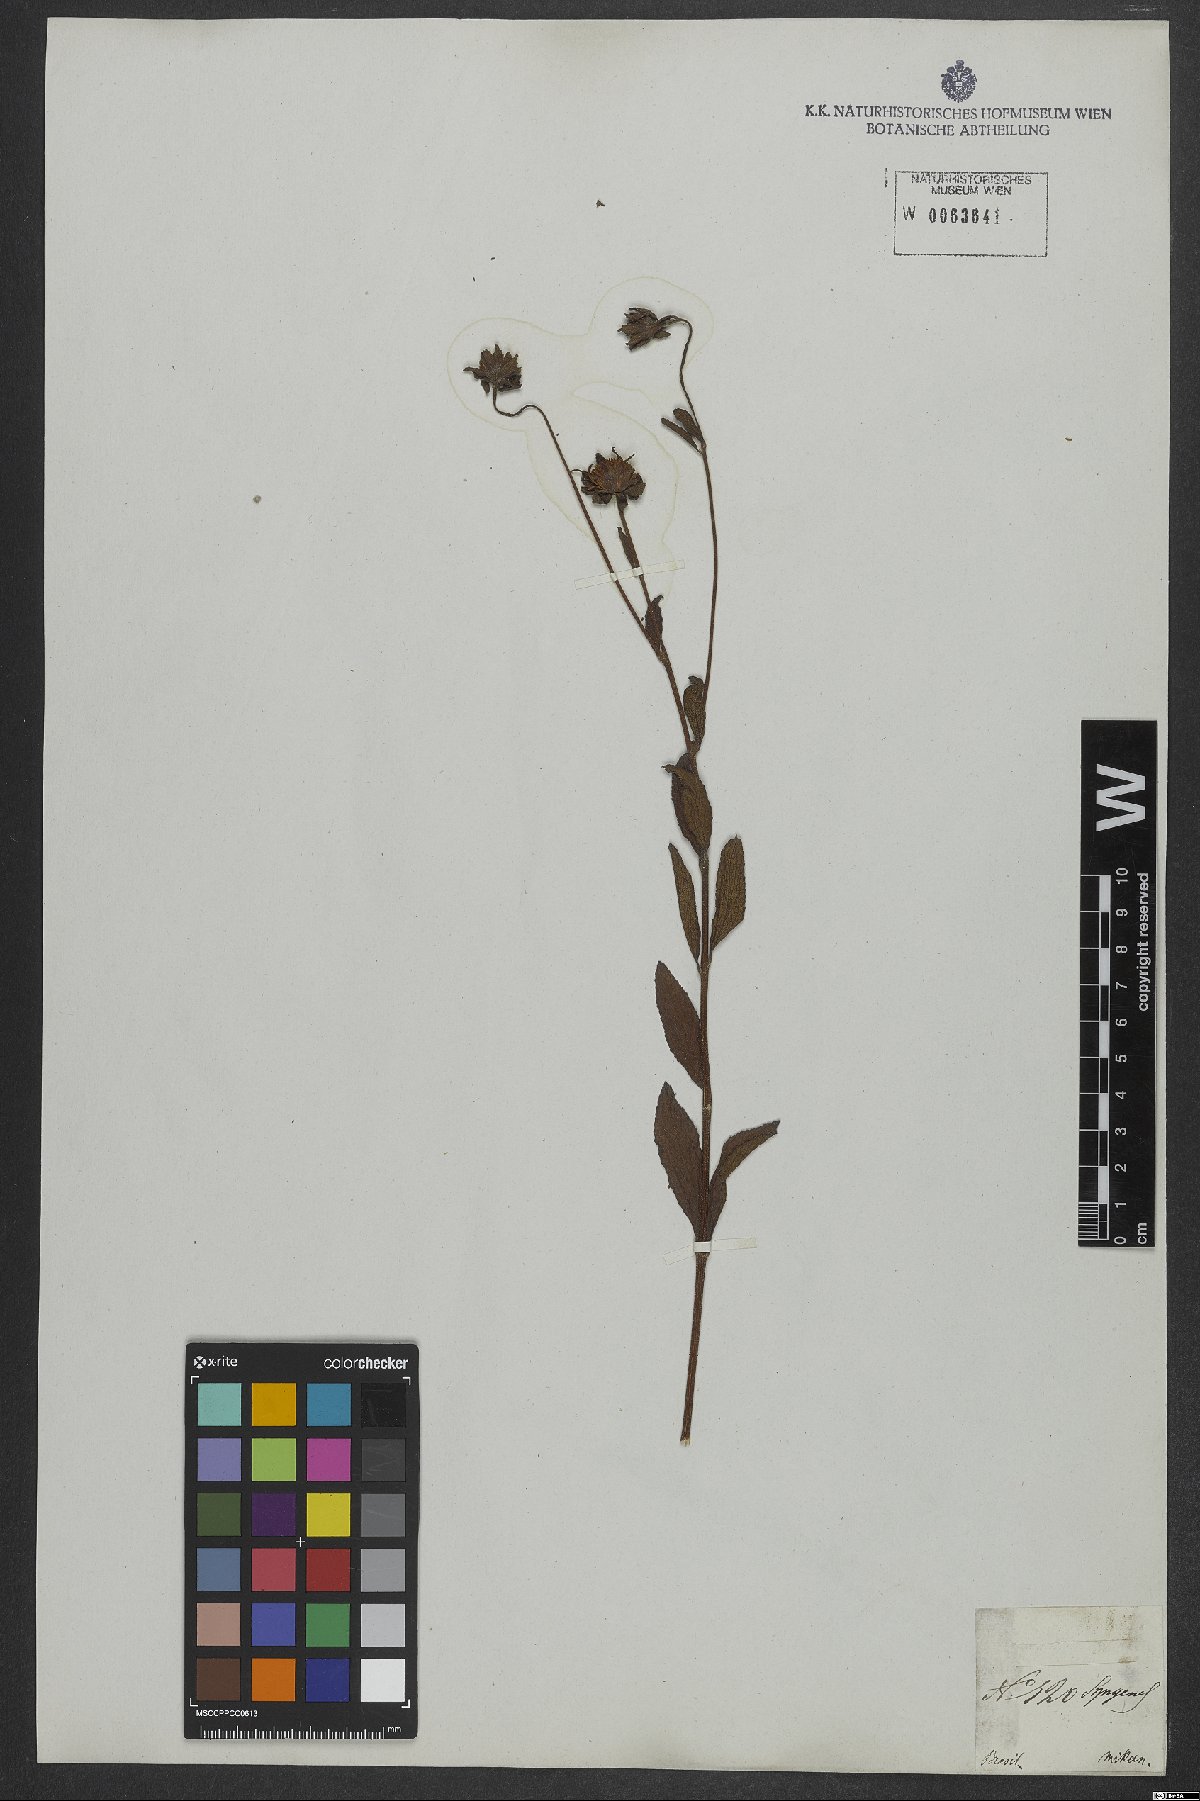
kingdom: Plantae
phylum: Tracheophyta
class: Magnoliopsida
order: Asterales
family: Asteraceae
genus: Melanthera
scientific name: Melanthera
